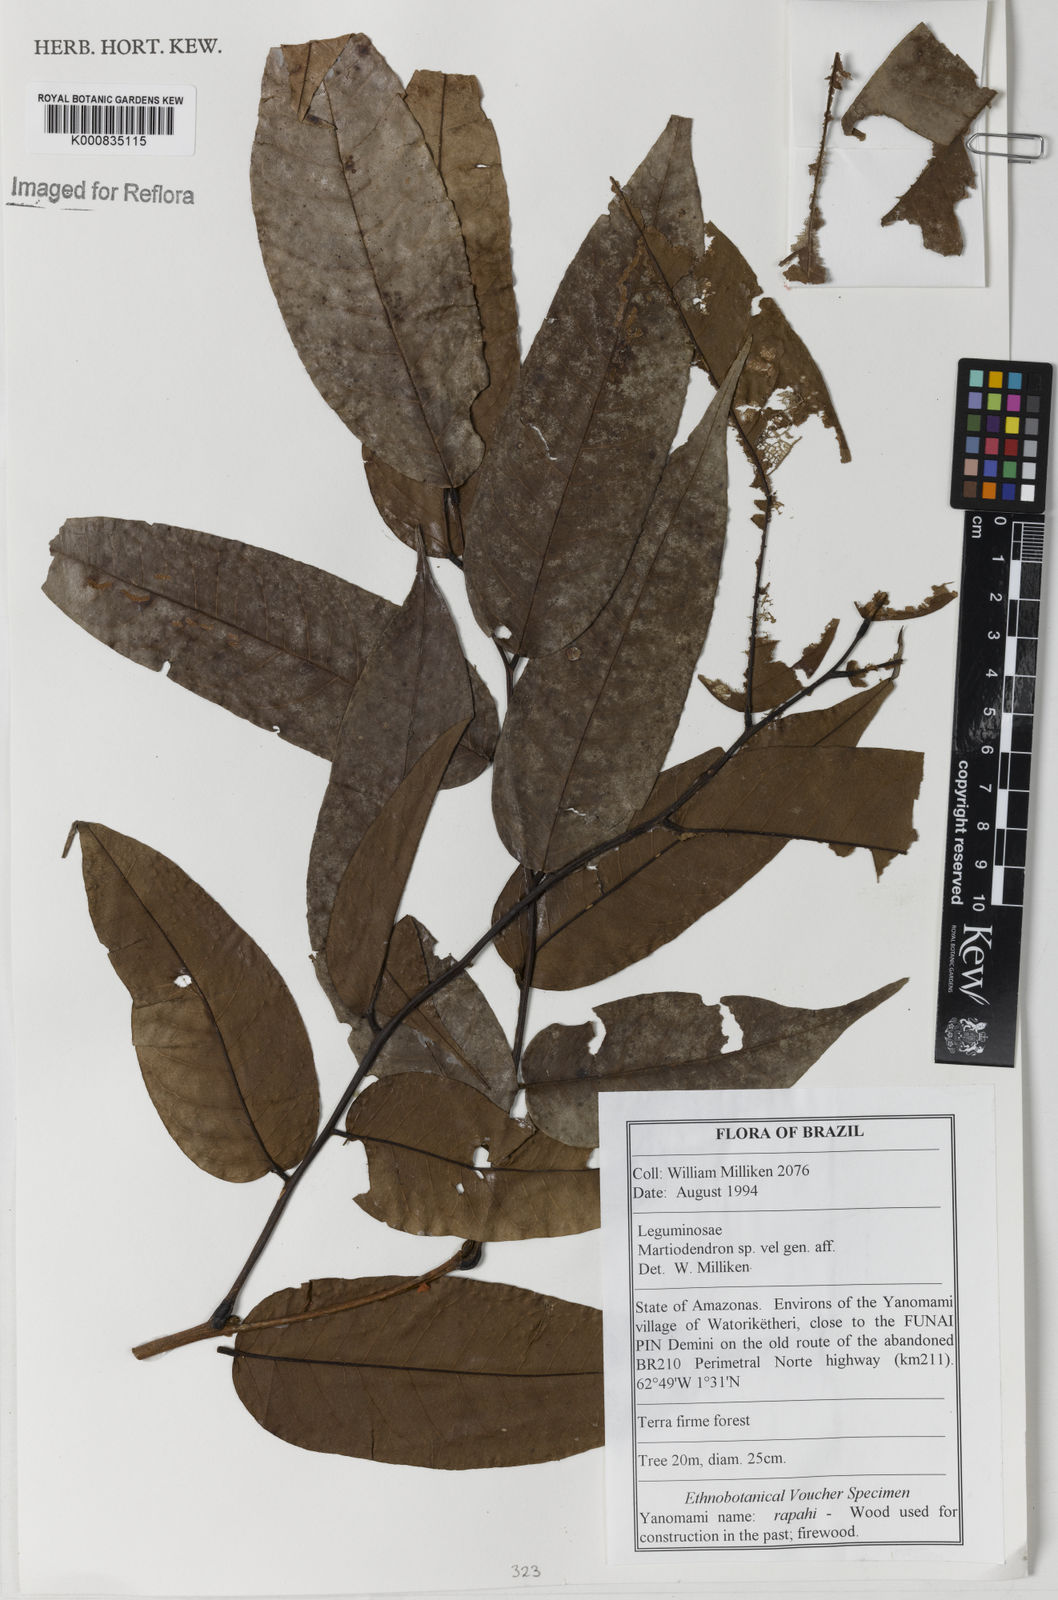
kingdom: Plantae
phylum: Tracheophyta
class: Magnoliopsida
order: Fabales
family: Fabaceae
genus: Martiodendron
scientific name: Martiodendron
